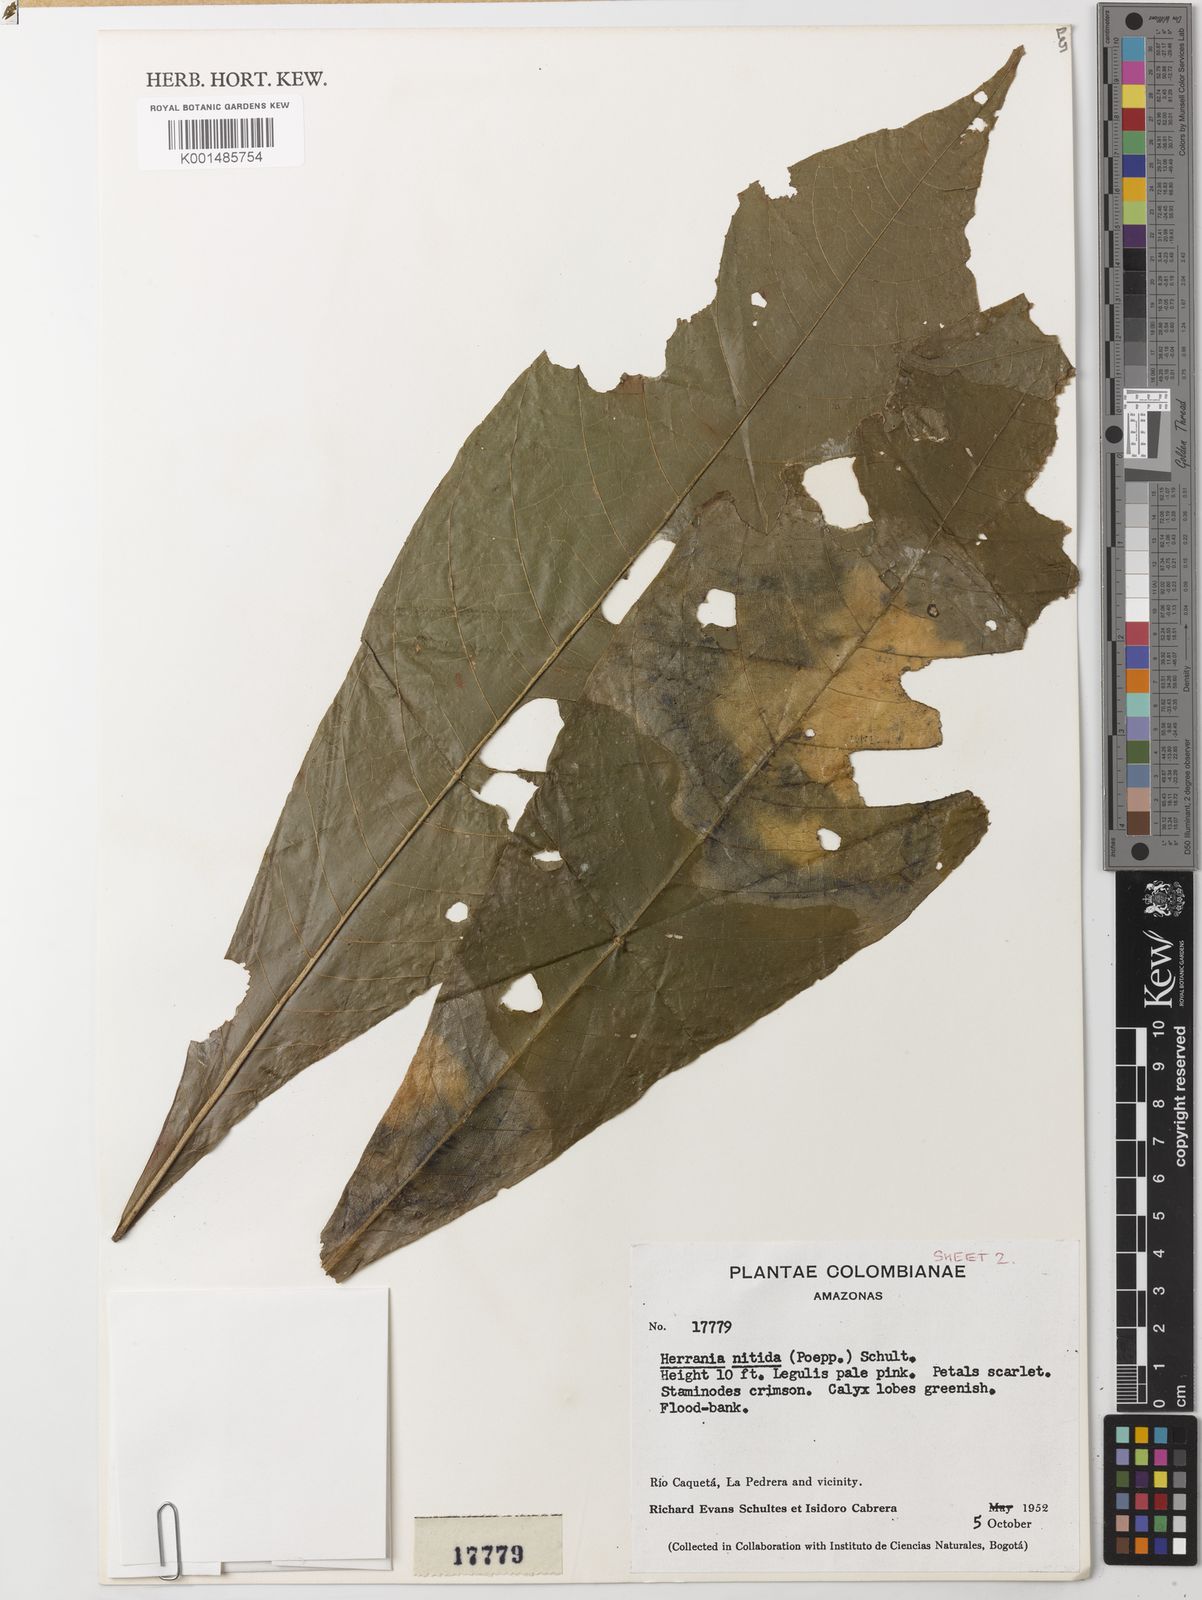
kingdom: Plantae
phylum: Tracheophyta
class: Magnoliopsida
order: Malvales
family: Malvaceae
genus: Herrania
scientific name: Herrania nitida
